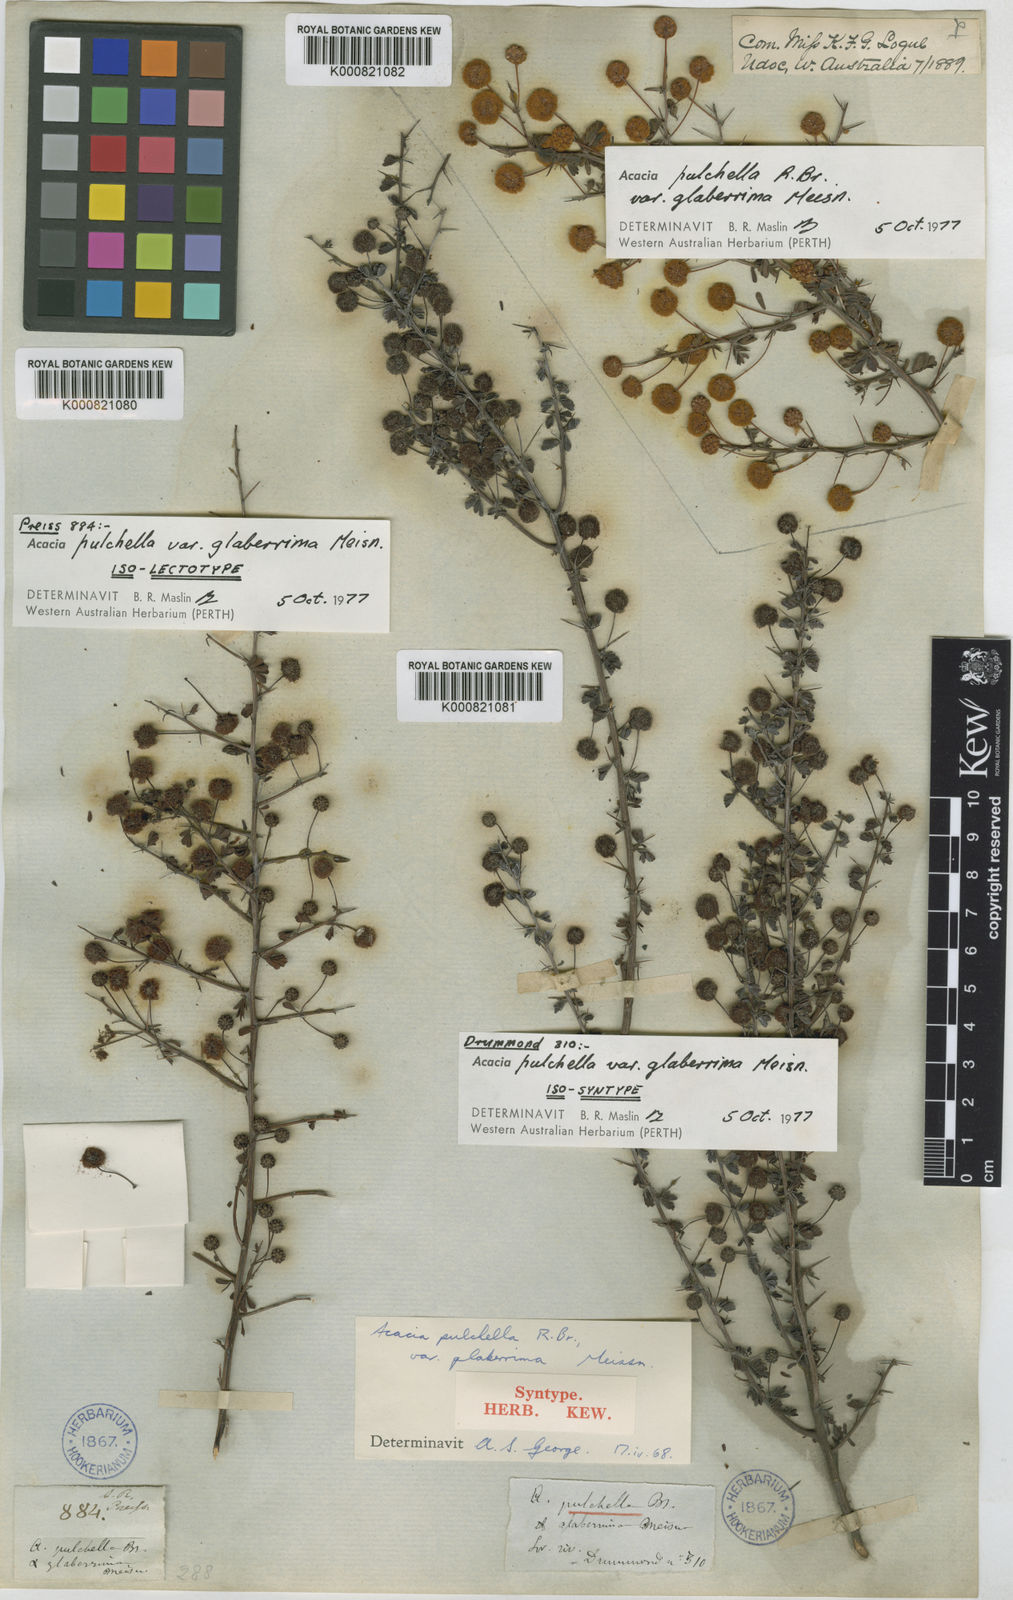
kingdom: Plantae
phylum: Tracheophyta
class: Magnoliopsida
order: Fabales
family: Fabaceae
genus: Acacia
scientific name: Acacia pulchella
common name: Prickly moses
